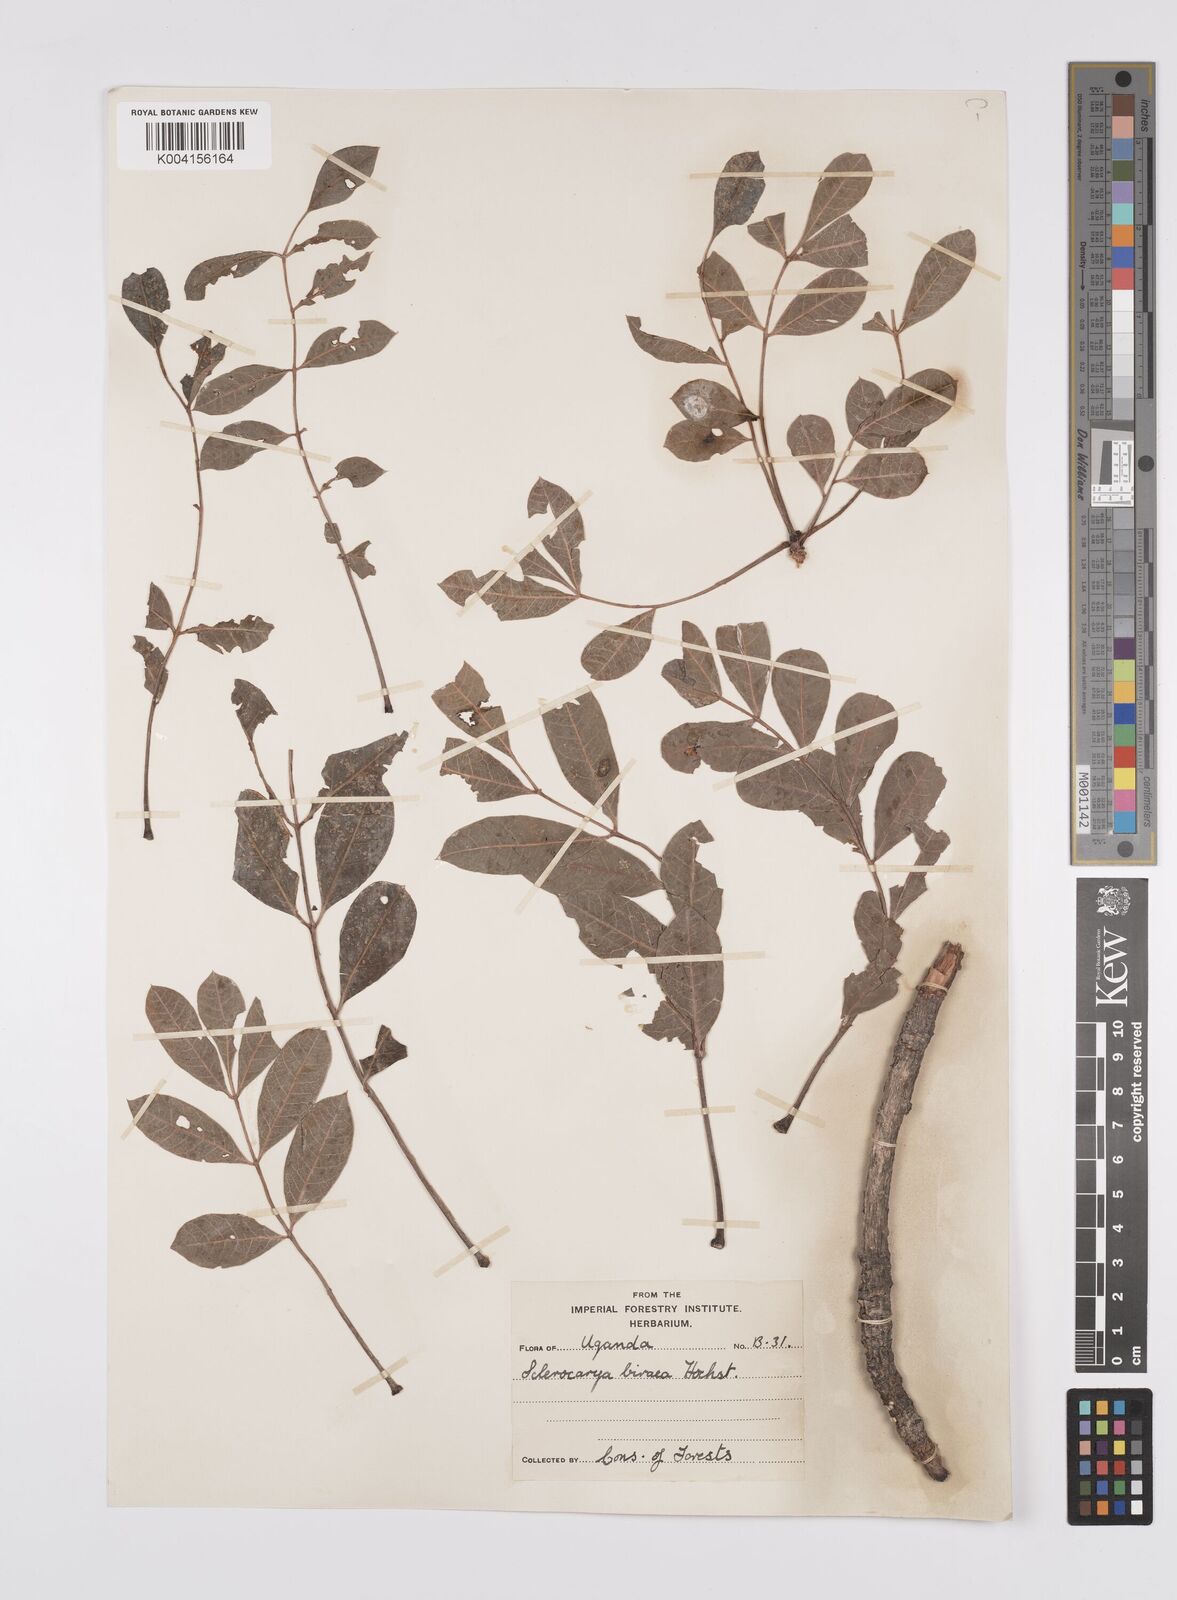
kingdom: Plantae
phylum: Tracheophyta
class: Magnoliopsida
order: Sapindales
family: Anacardiaceae
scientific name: Anacardiaceae
